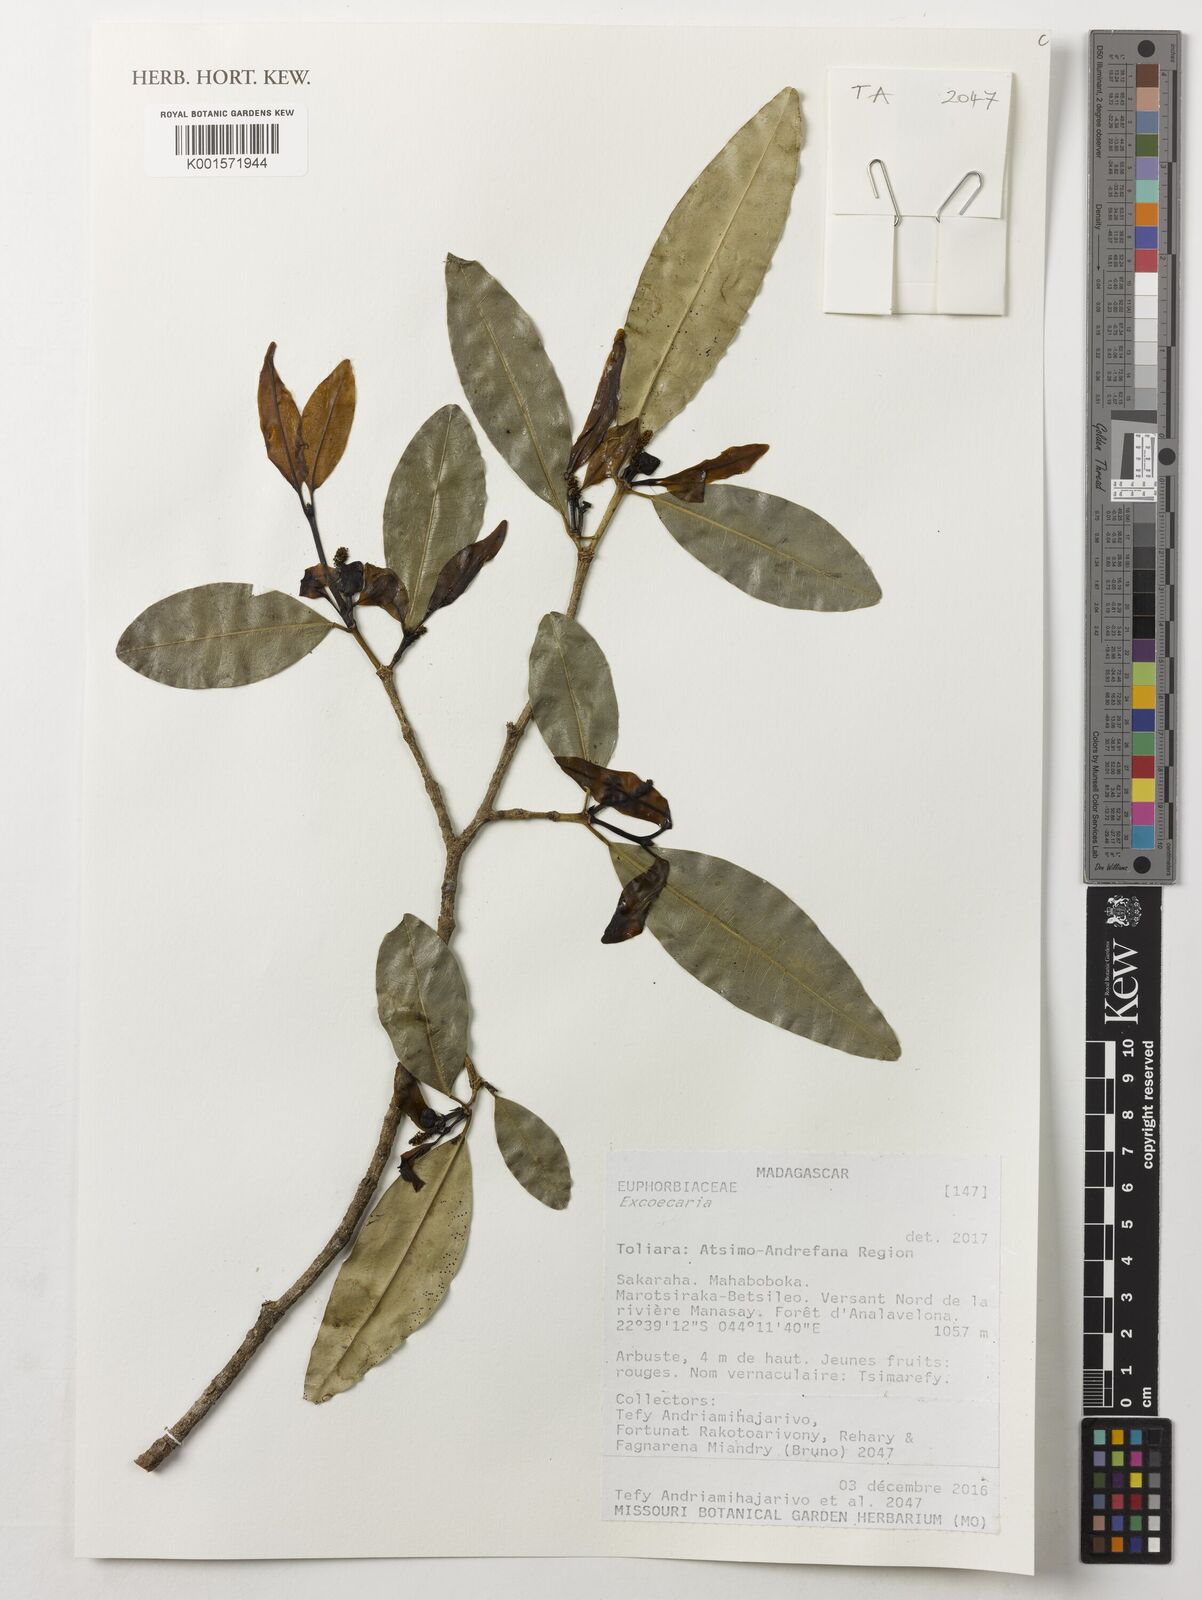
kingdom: Plantae
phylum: Tracheophyta
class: Magnoliopsida
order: Malpighiales
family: Euphorbiaceae
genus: Excoecaria
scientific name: Excoecaria
